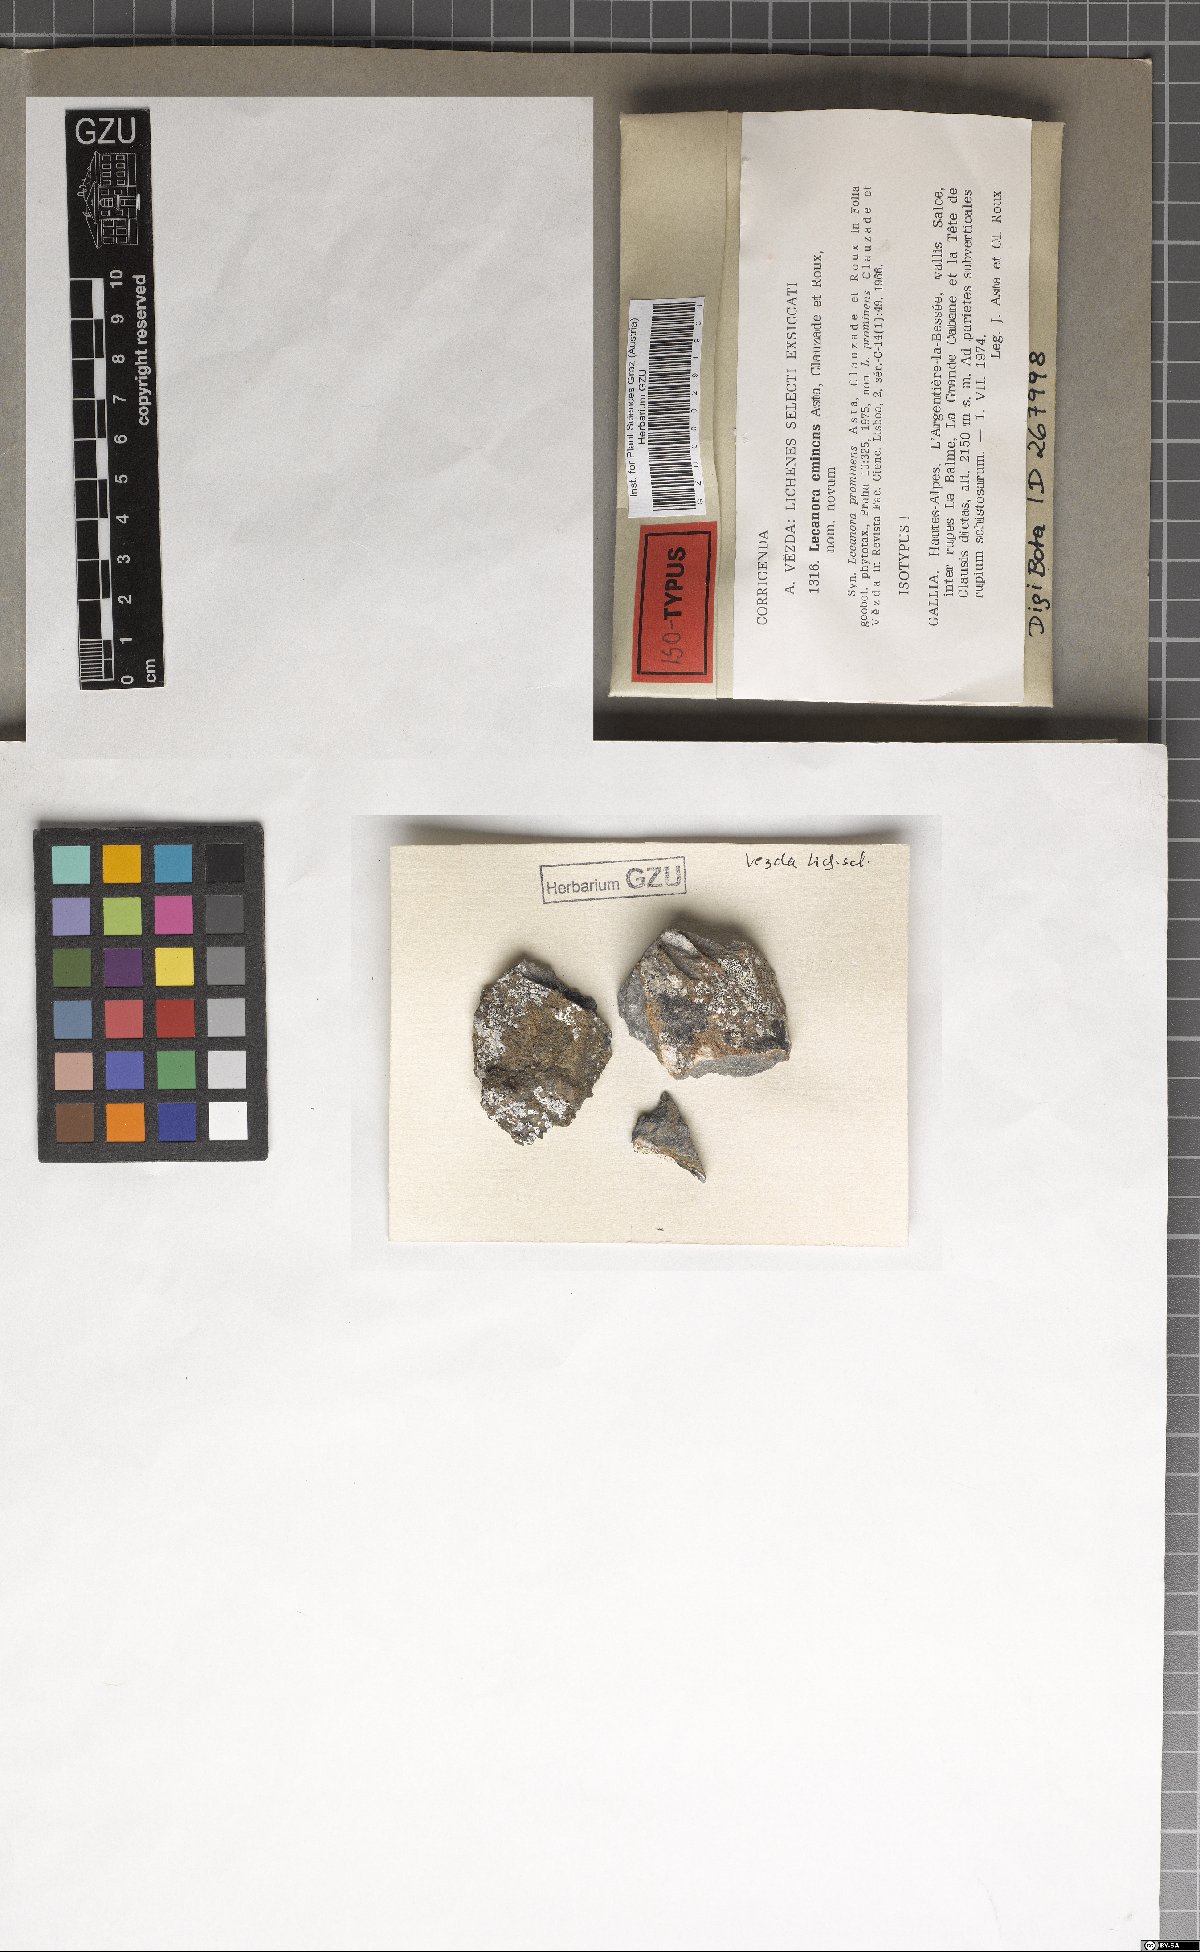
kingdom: Fungi
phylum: Ascomycota
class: Lecanoromycetes
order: Lecanorales
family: Lecanoraceae
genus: Lecanora
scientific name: Lecanora eminens
